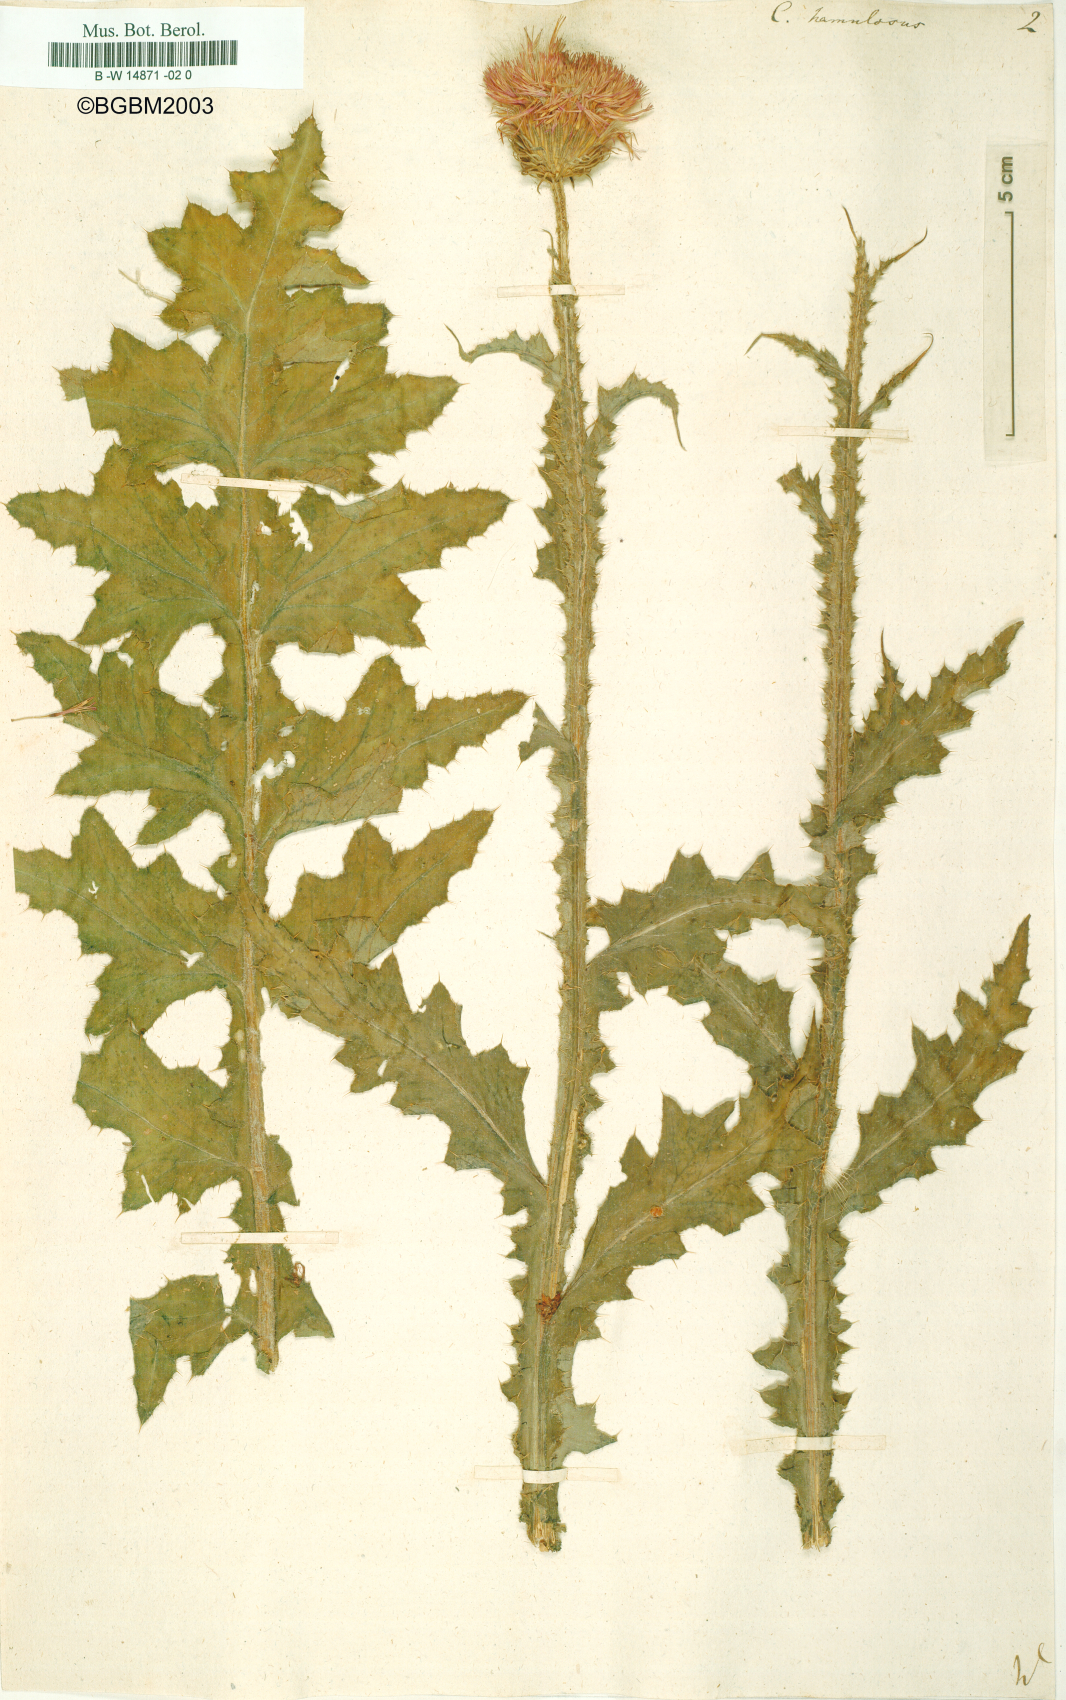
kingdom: Plantae
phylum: Tracheophyta
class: Magnoliopsida
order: Asterales
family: Asteraceae
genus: Carduus
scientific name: Carduus hamulosus
